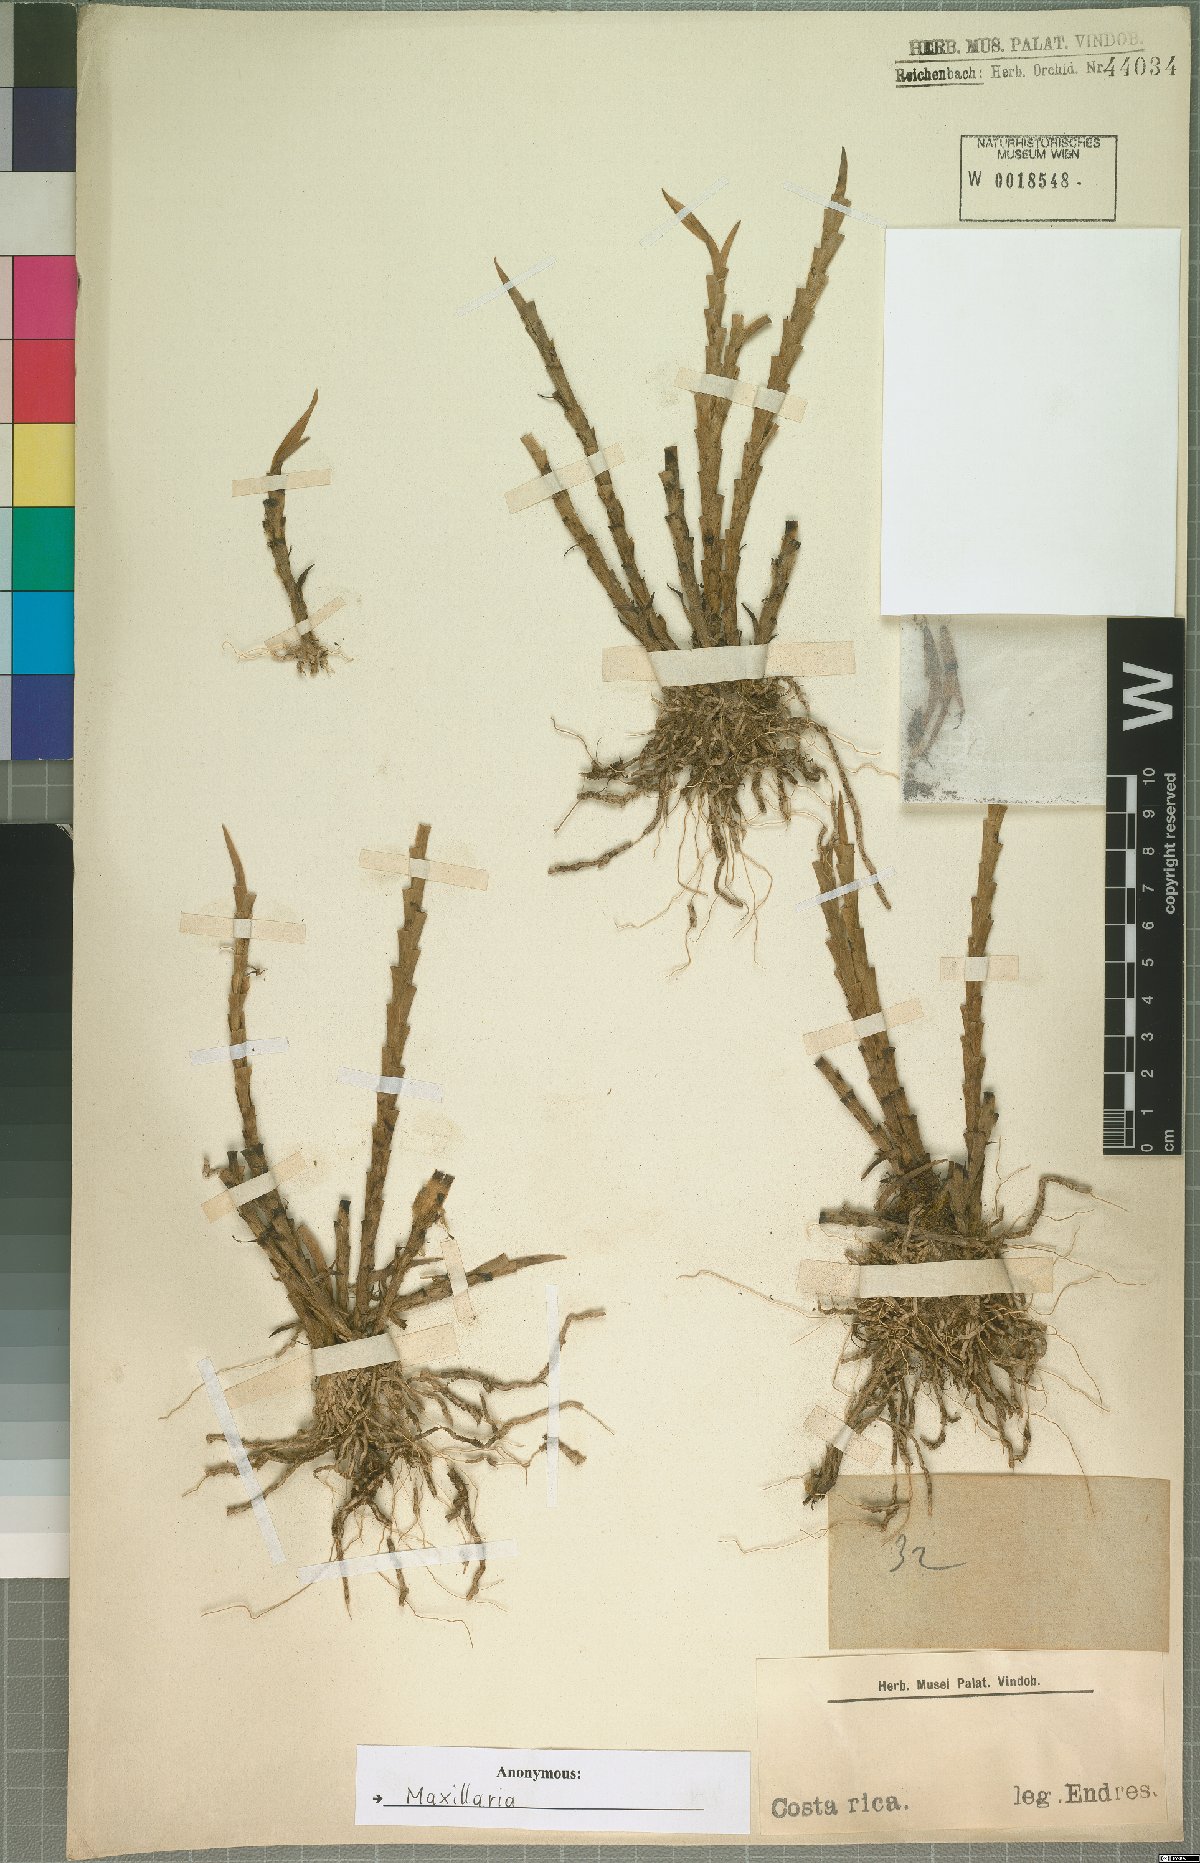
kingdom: Plantae
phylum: Tracheophyta
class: Liliopsida
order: Asparagales
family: Orchidaceae
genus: Maxillaria
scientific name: Maxillaria
